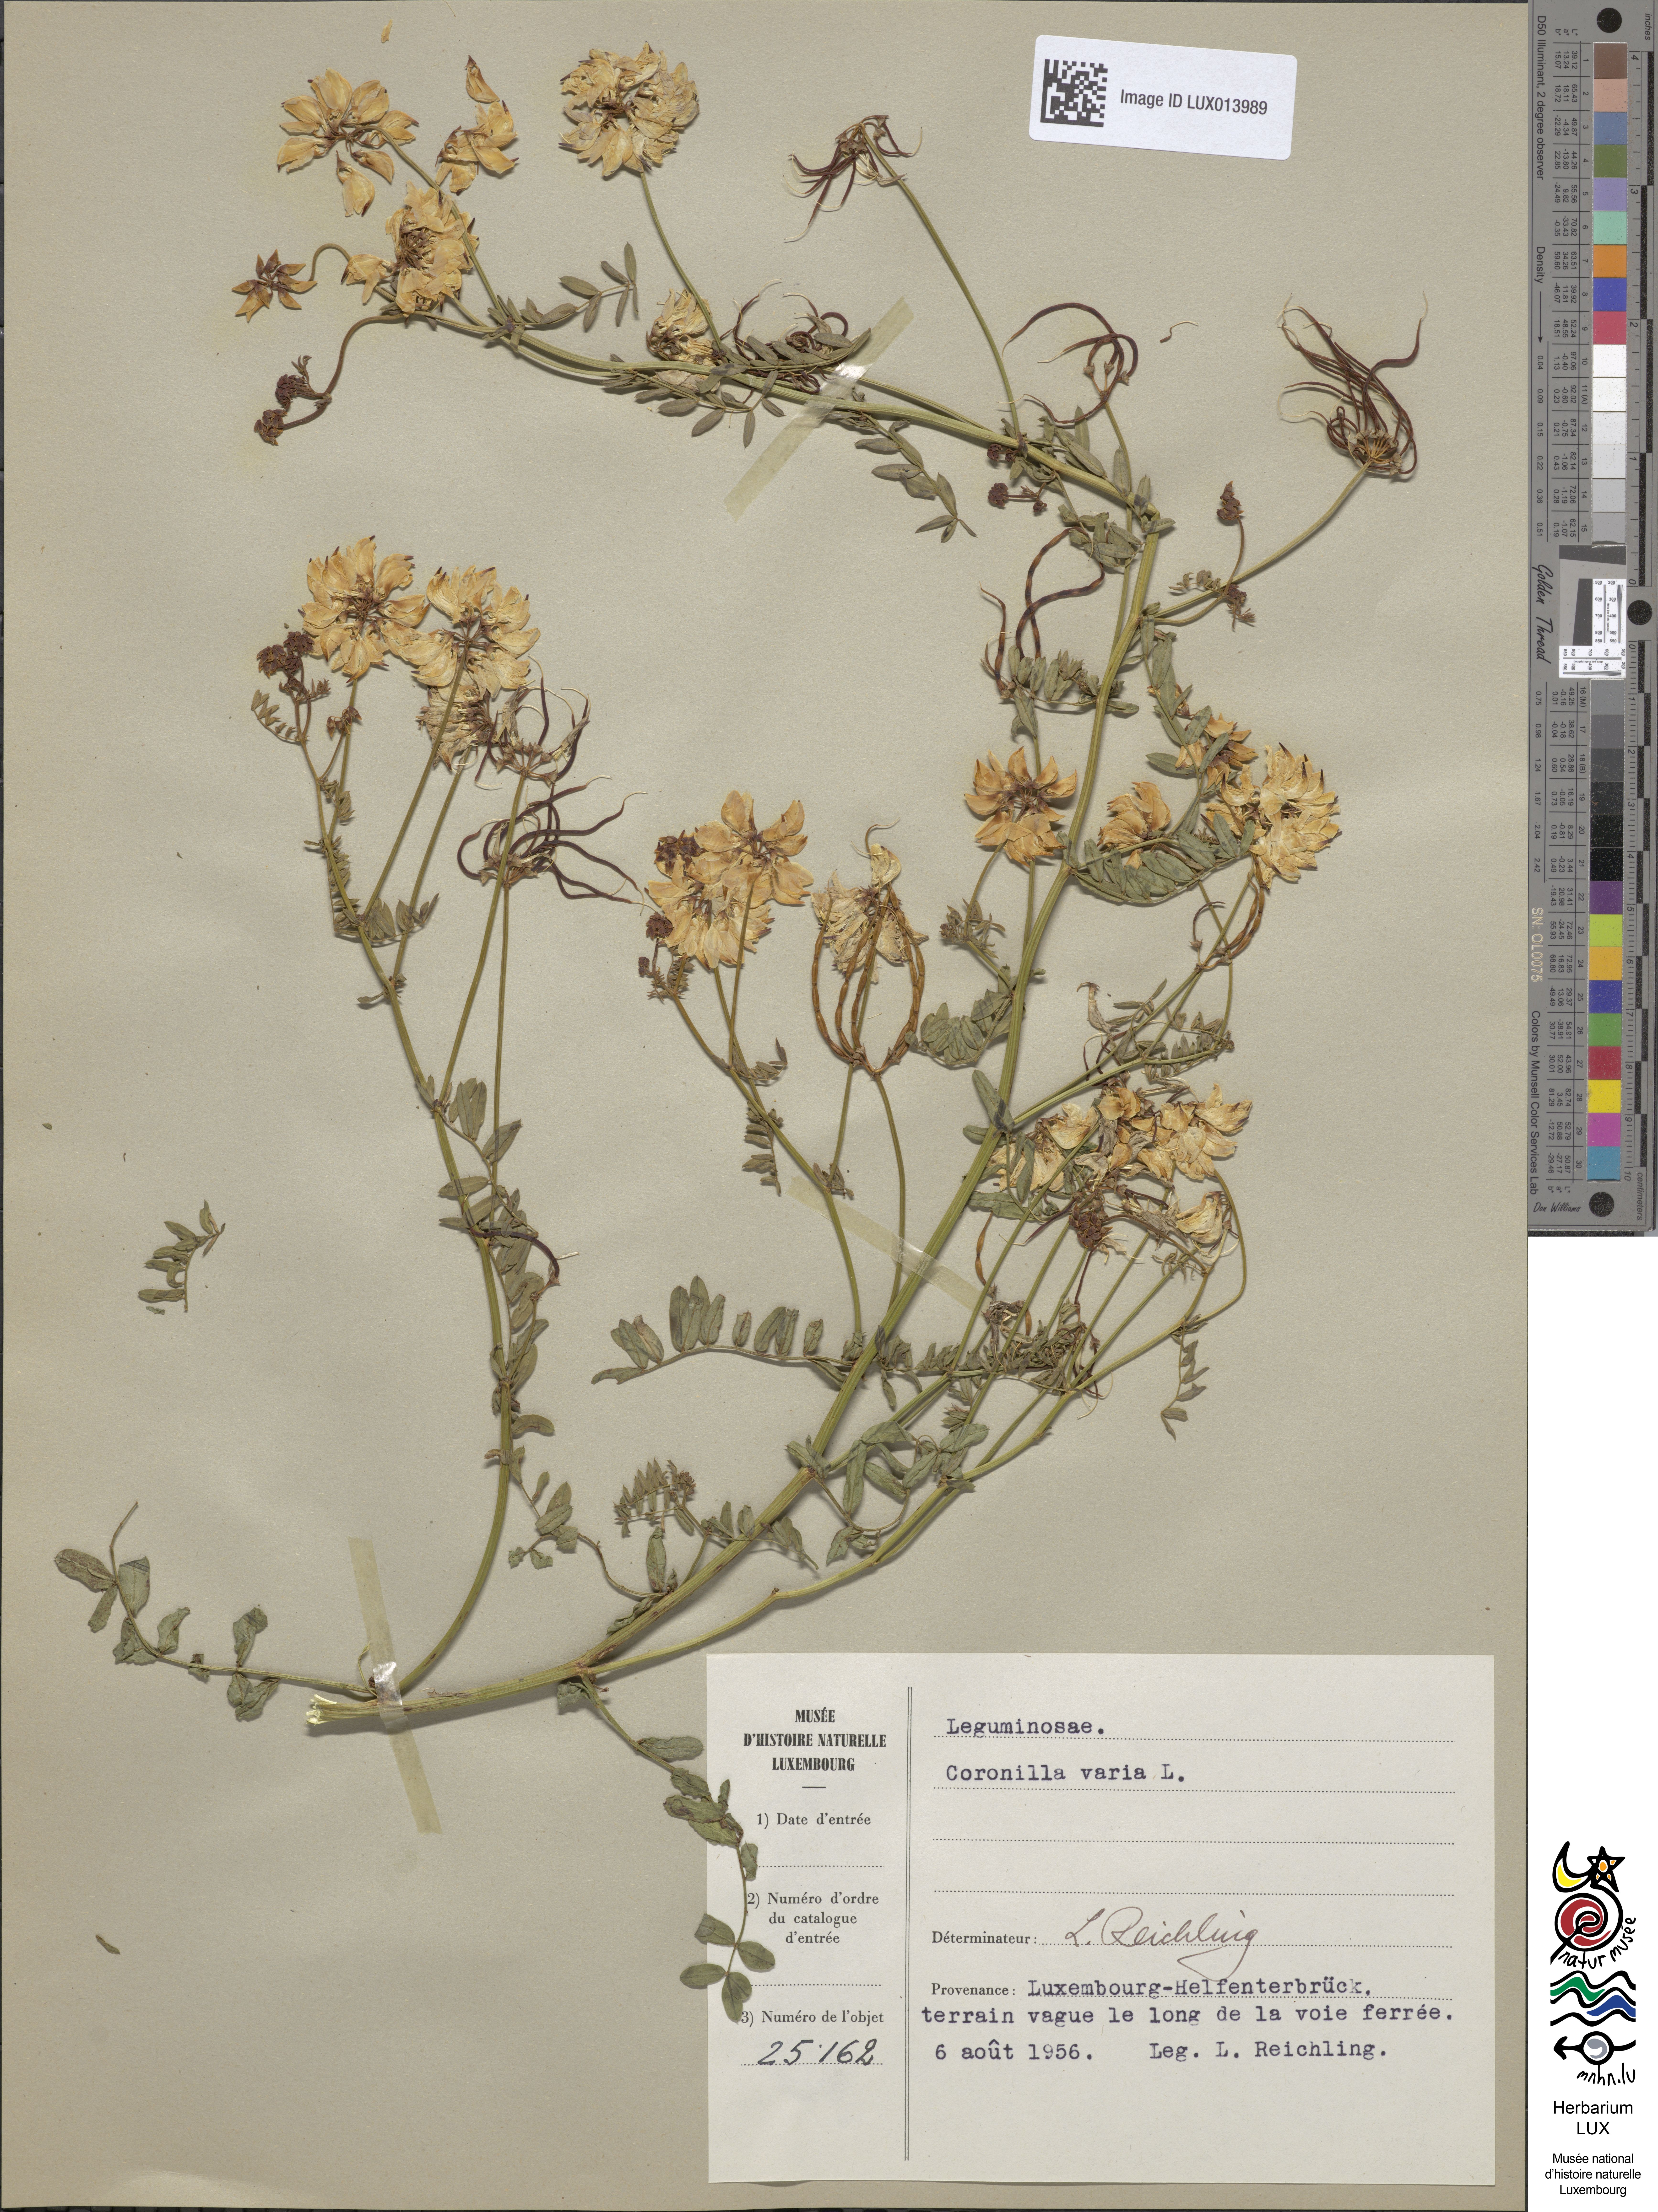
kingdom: Plantae
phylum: Tracheophyta
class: Magnoliopsida
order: Fabales
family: Fabaceae
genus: Coronilla
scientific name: Coronilla varia
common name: Crownvetch
